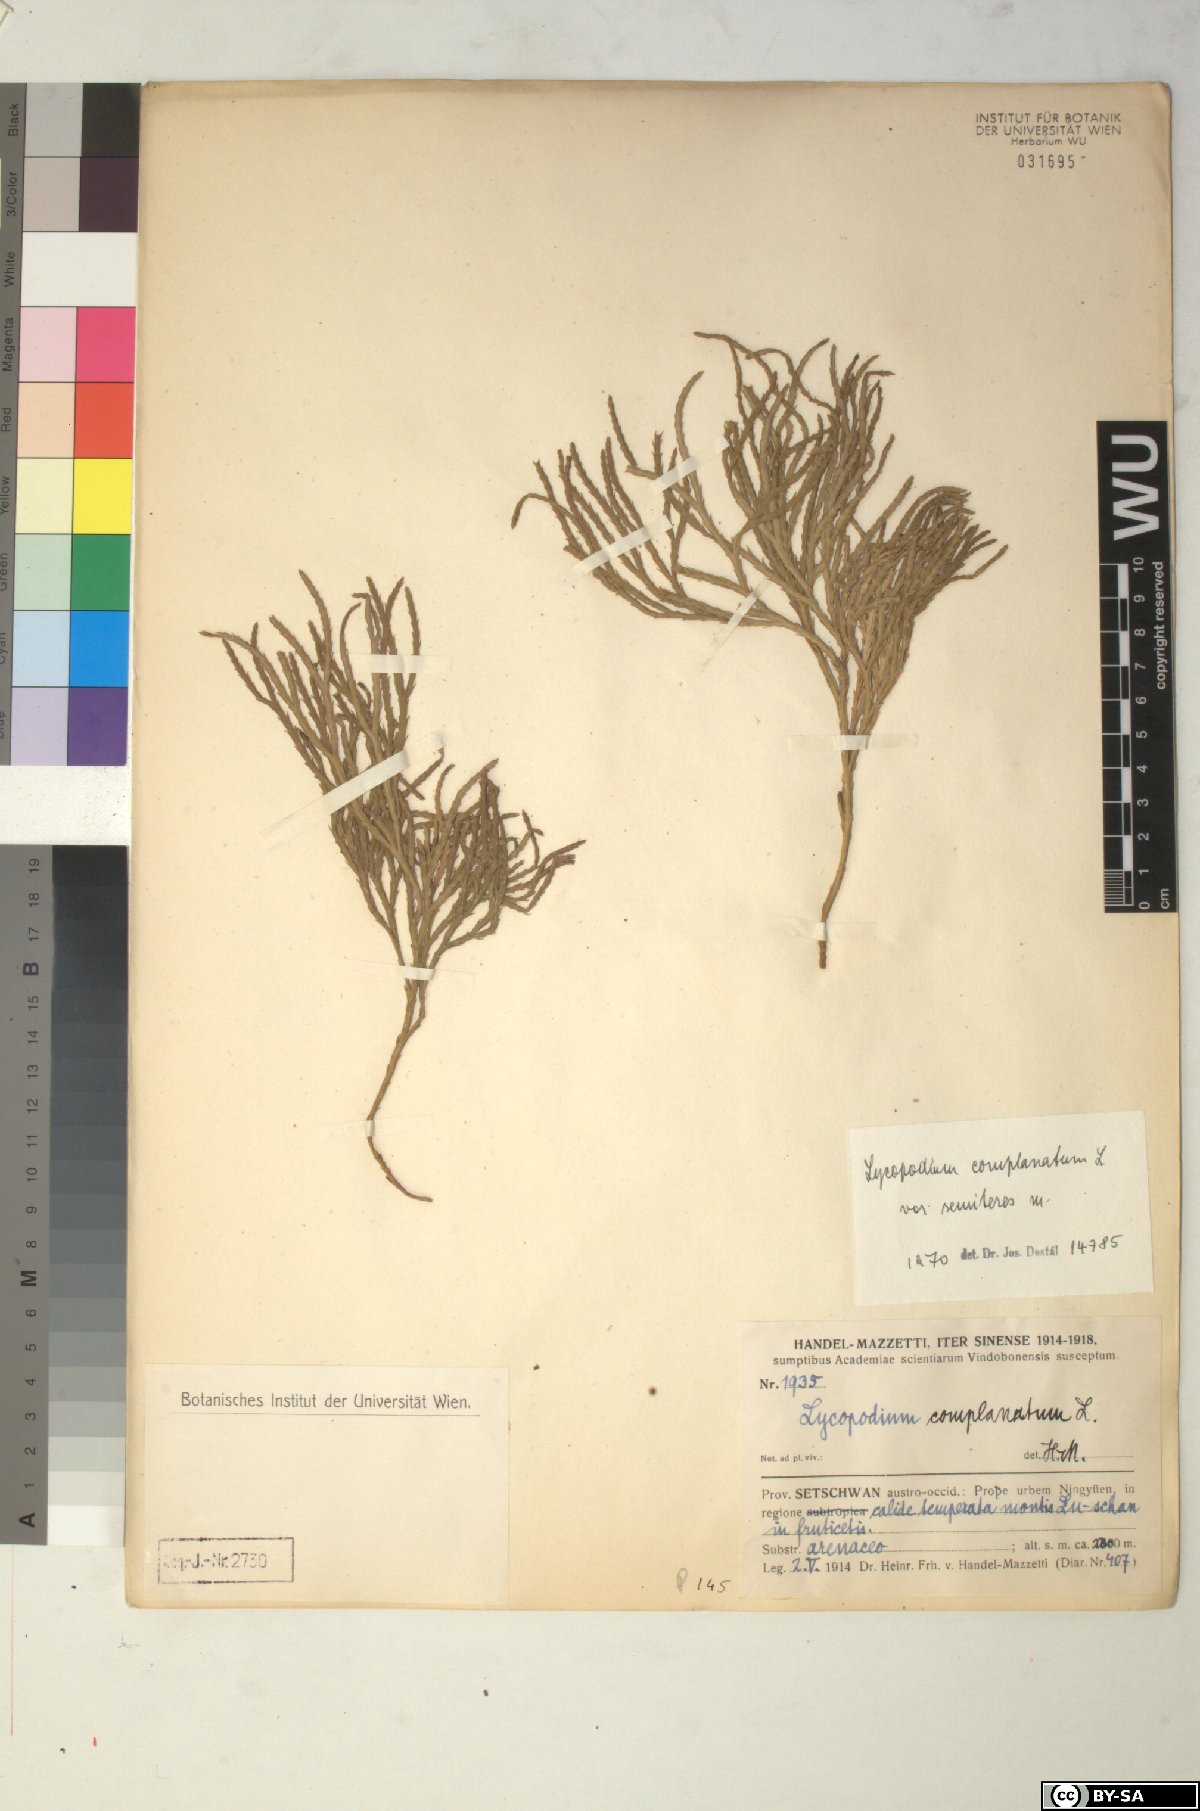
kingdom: Plantae
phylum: Tracheophyta
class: Lycopodiopsida
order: Lycopodiales
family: Lycopodiaceae
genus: Diphasiastrum
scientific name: Diphasiastrum complanatum
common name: Northern running-pine
